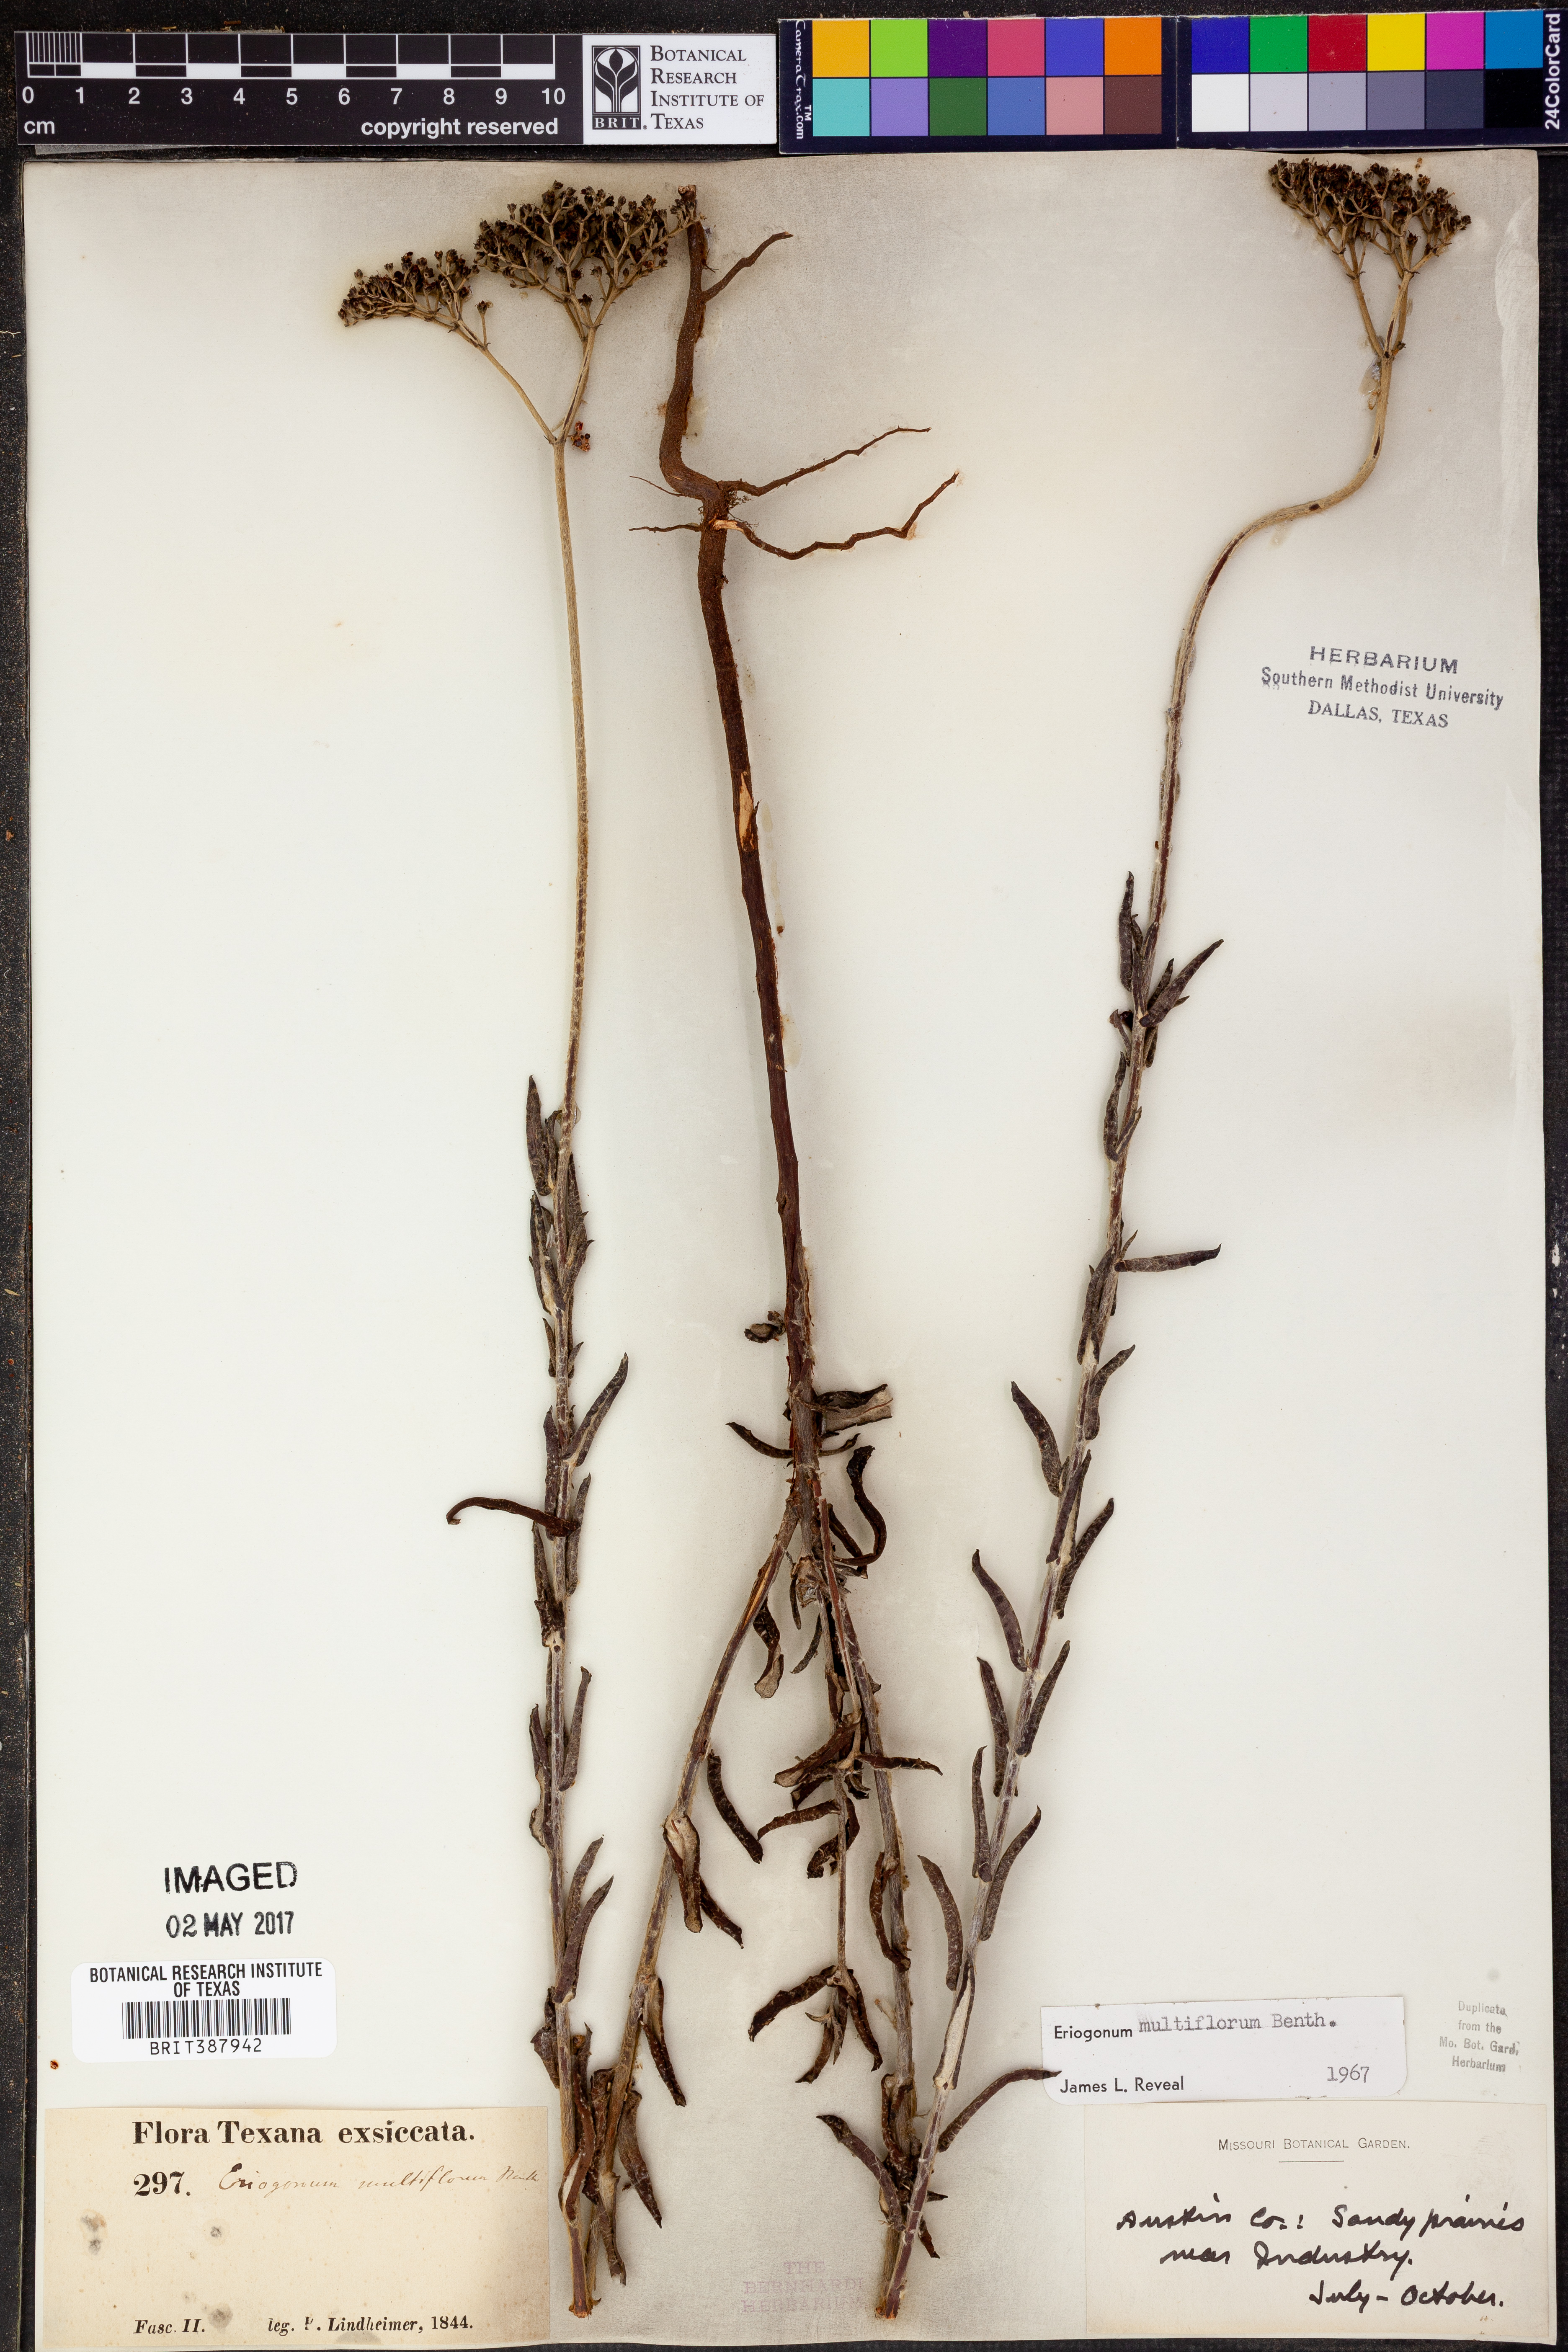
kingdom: Plantae
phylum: Tracheophyta
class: Magnoliopsida
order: Caryophyllales
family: Polygonaceae
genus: Eriogonum
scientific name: Eriogonum multiflorum
